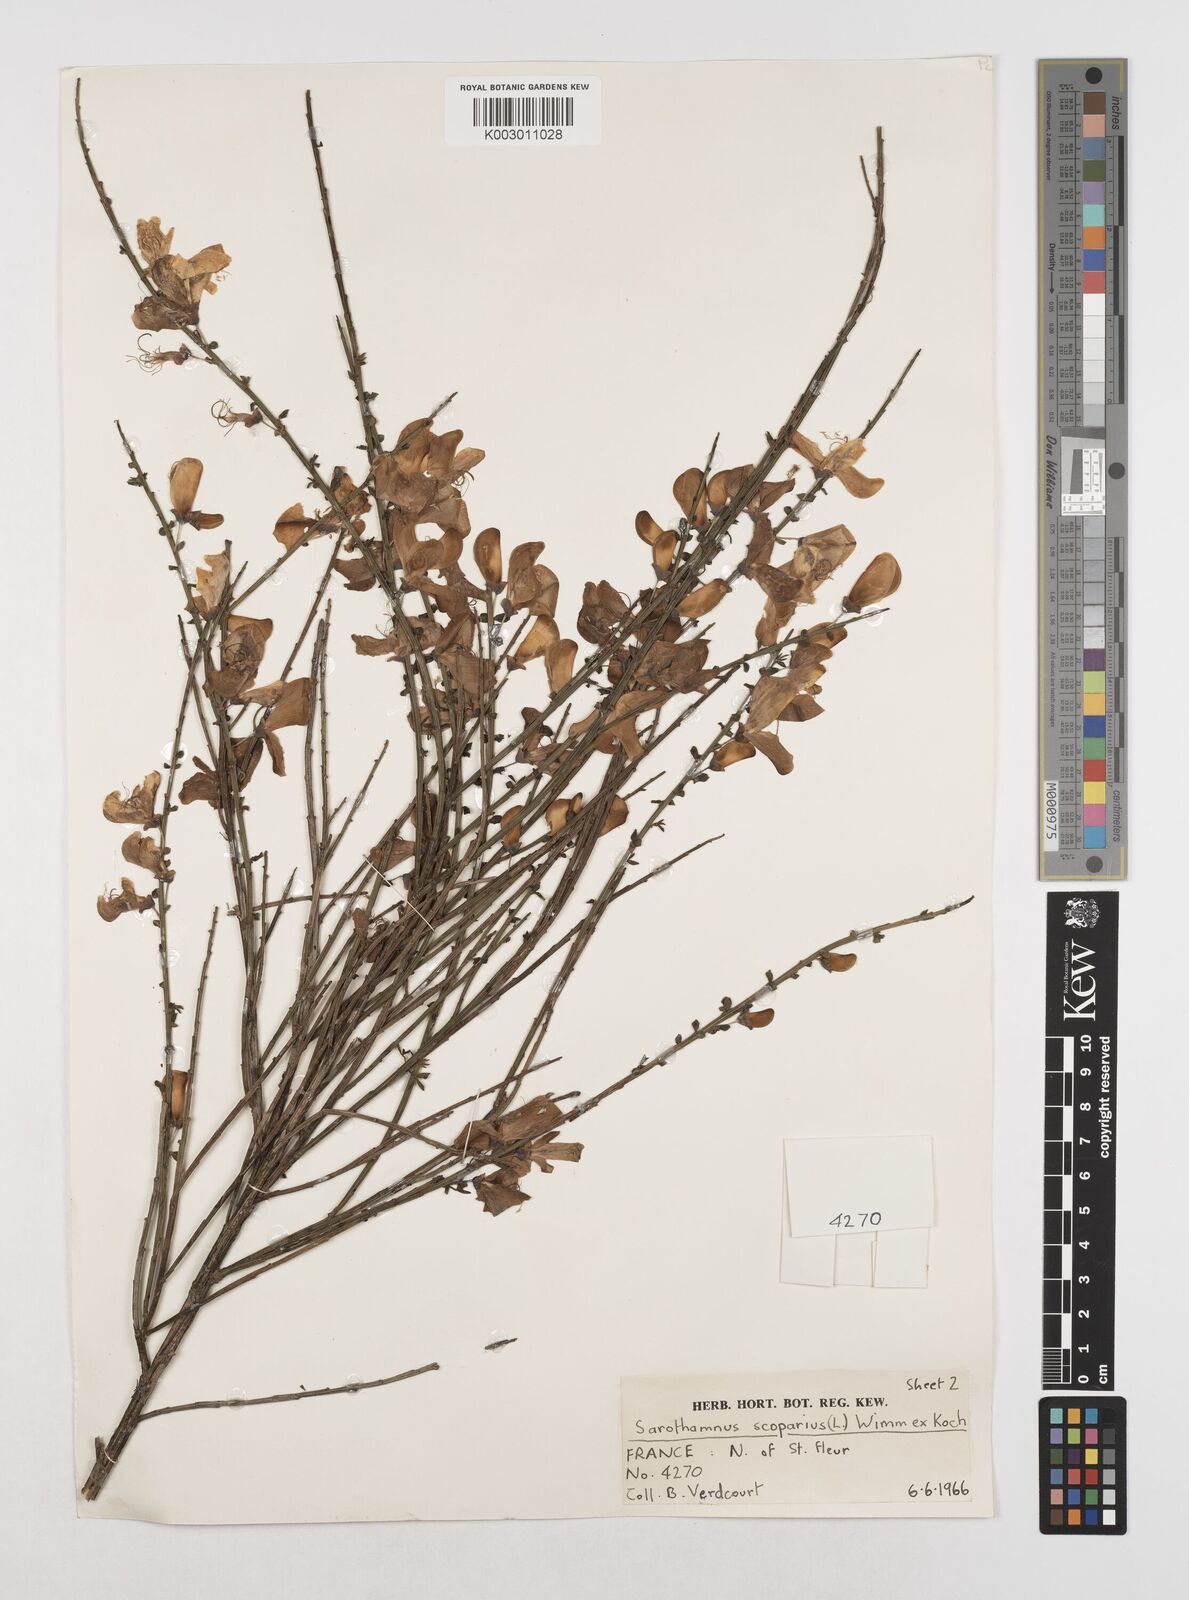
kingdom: Plantae
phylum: Tracheophyta
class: Magnoliopsida
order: Fabales
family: Fabaceae
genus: Cytisus
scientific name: Cytisus scoparius
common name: Scotch broom
